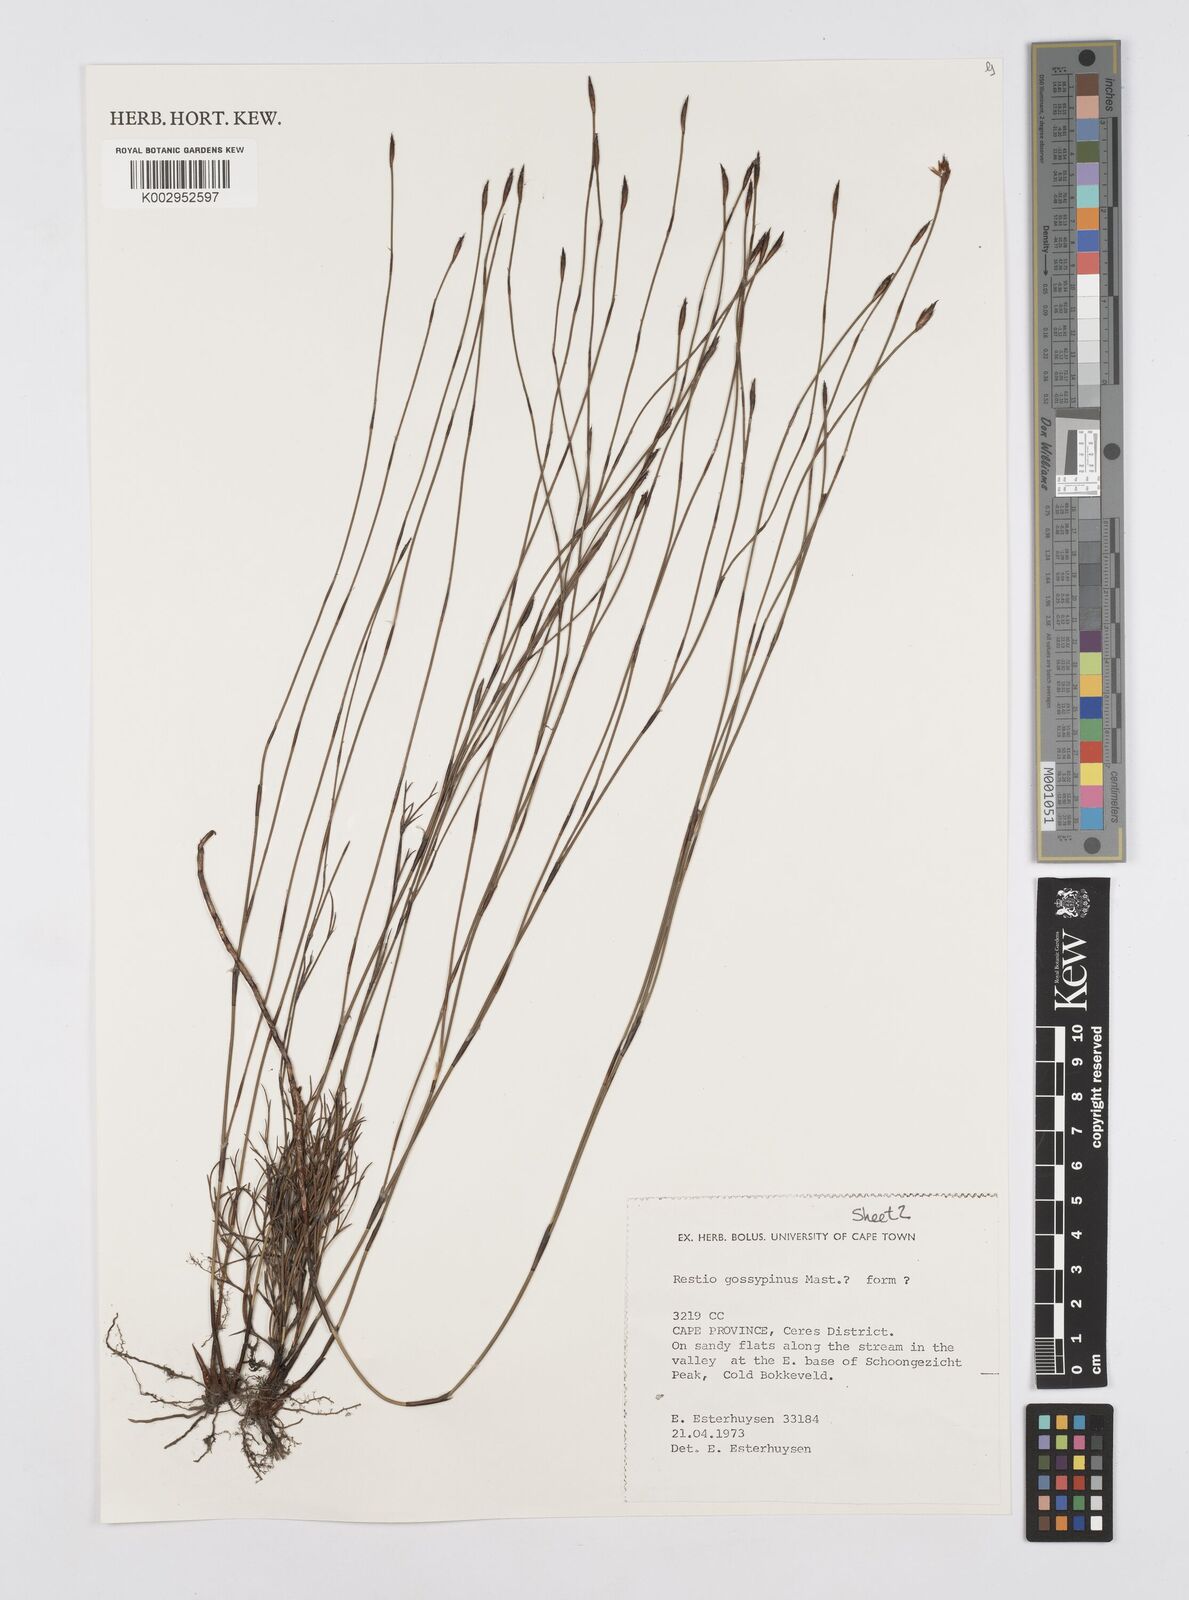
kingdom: Plantae
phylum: Tracheophyta
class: Liliopsida
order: Poales
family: Restionaceae
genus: Restio
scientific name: Restio gossypinus
